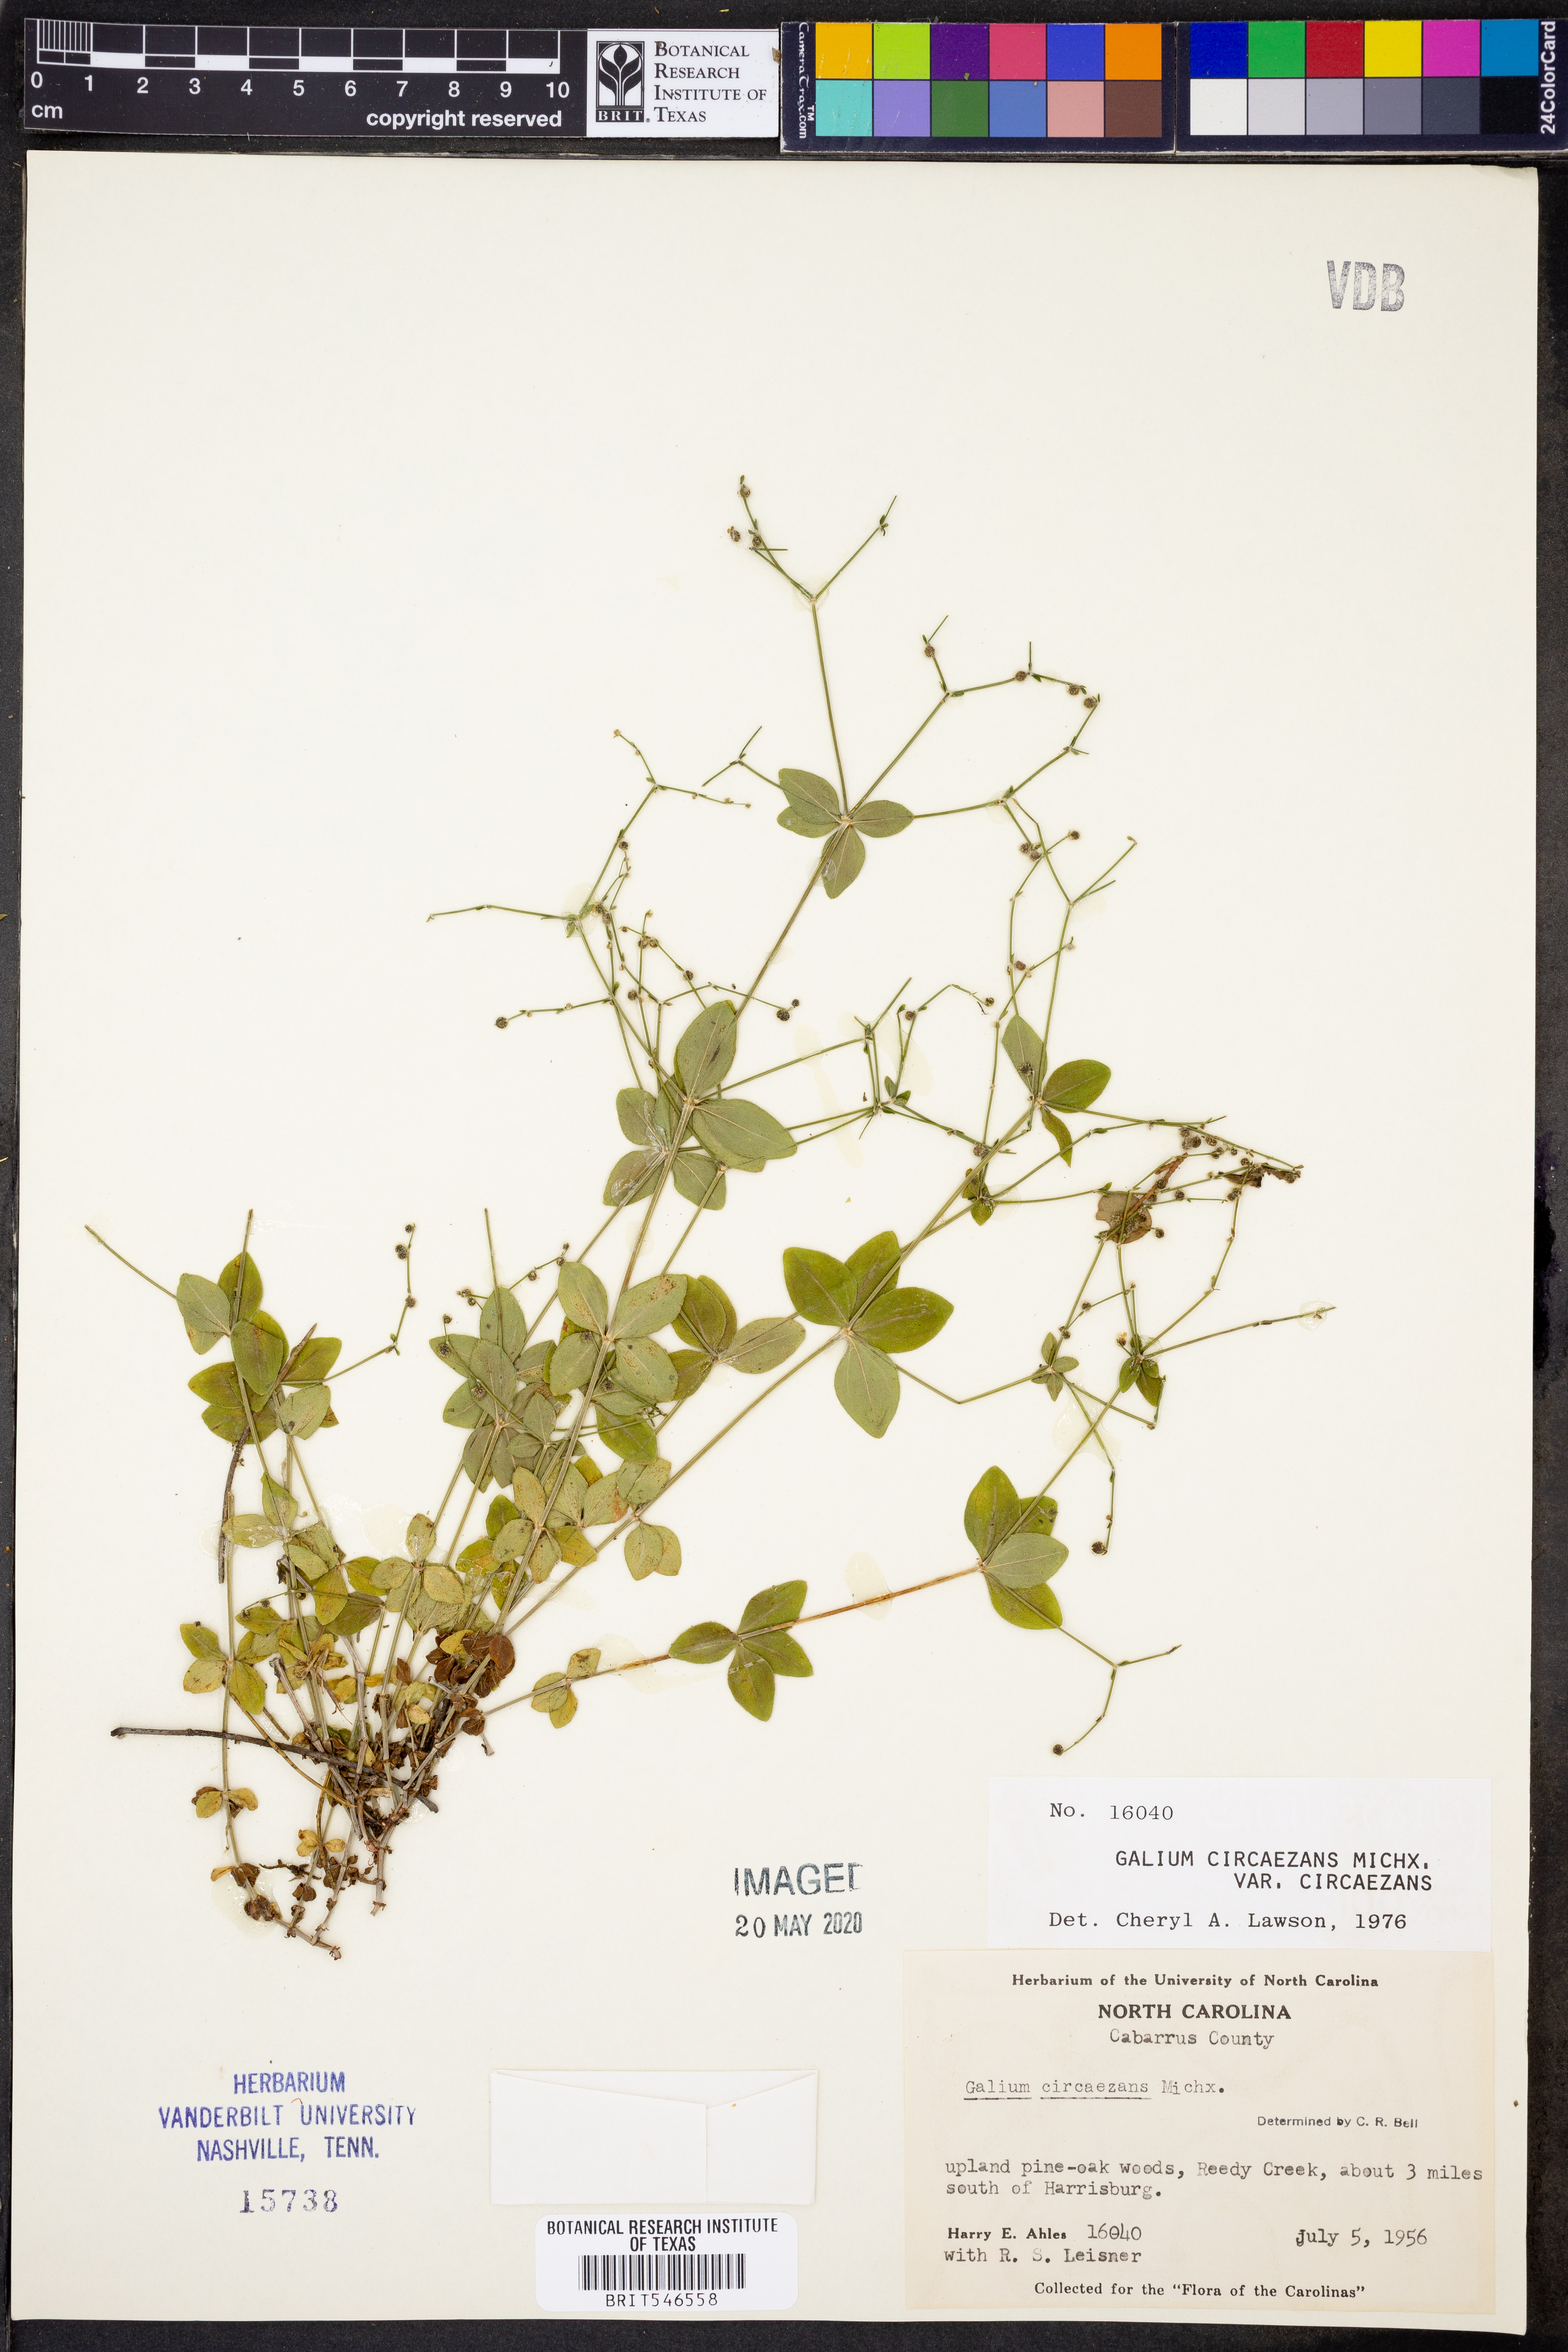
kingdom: Plantae
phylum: Tracheophyta
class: Magnoliopsida
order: Gentianales
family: Rubiaceae
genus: Galium
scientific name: Galium circaezans
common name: Forest bedstraw
